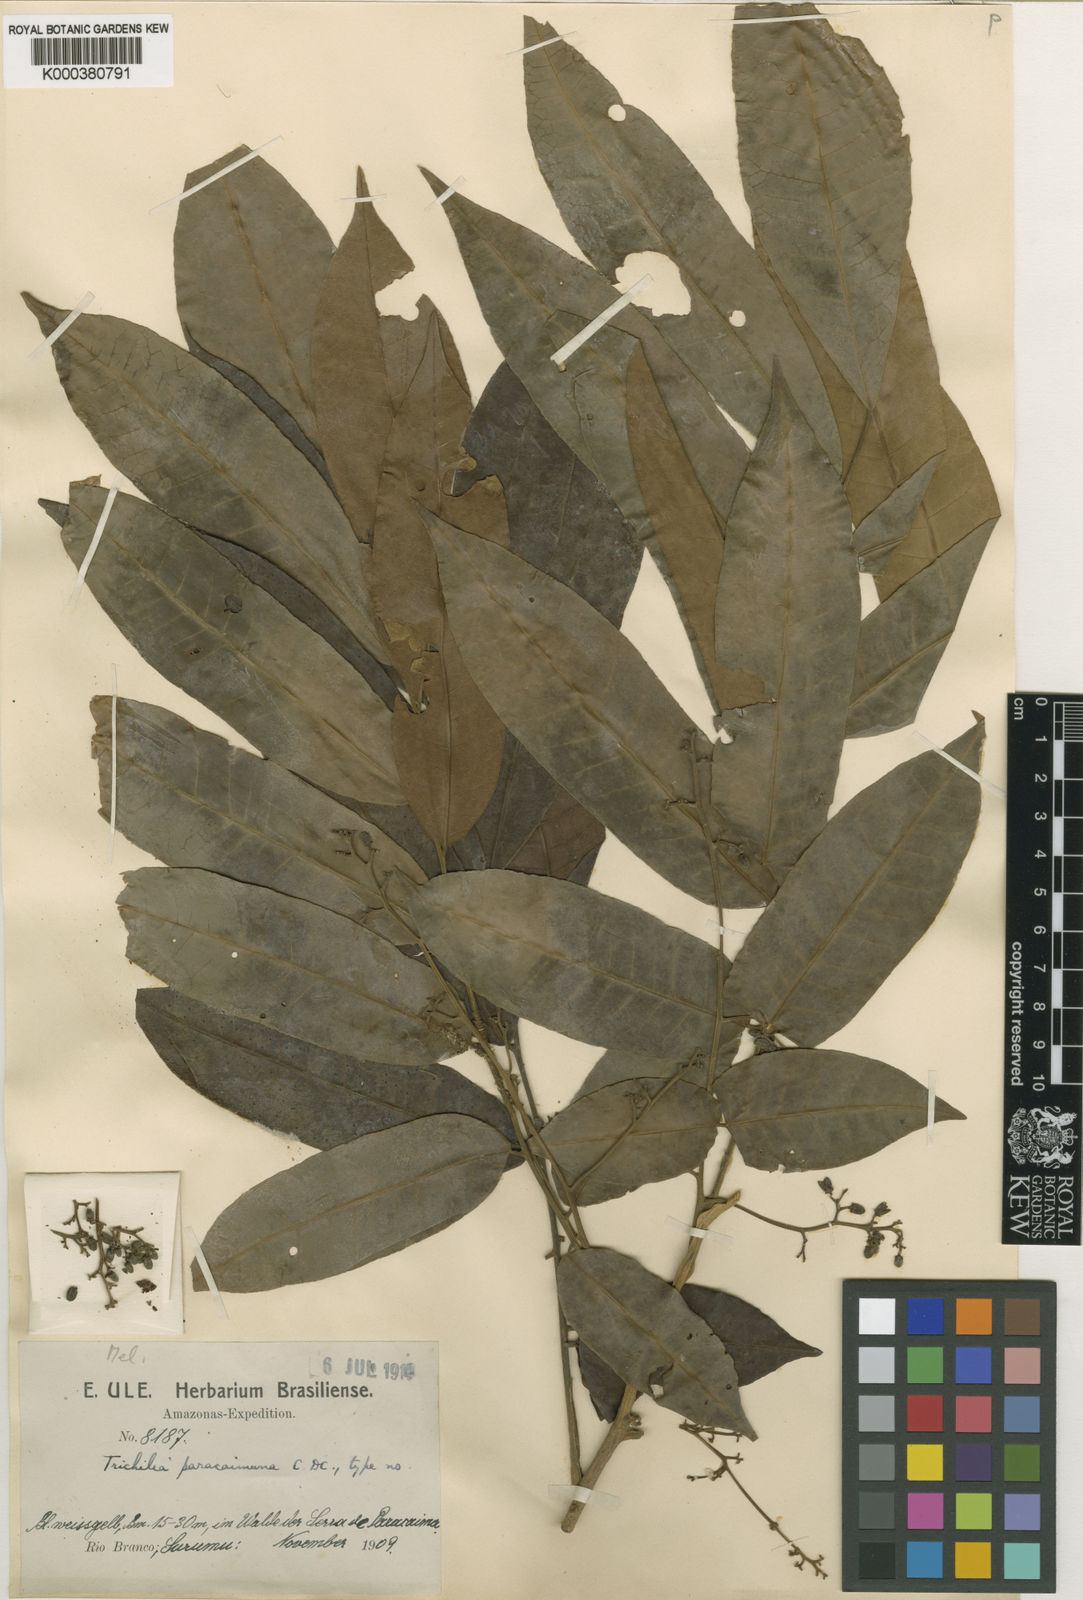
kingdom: Plantae
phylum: Tracheophyta
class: Magnoliopsida
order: Sapindales
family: Meliaceae
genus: Trichilia
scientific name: Trichilia quadrijuga
